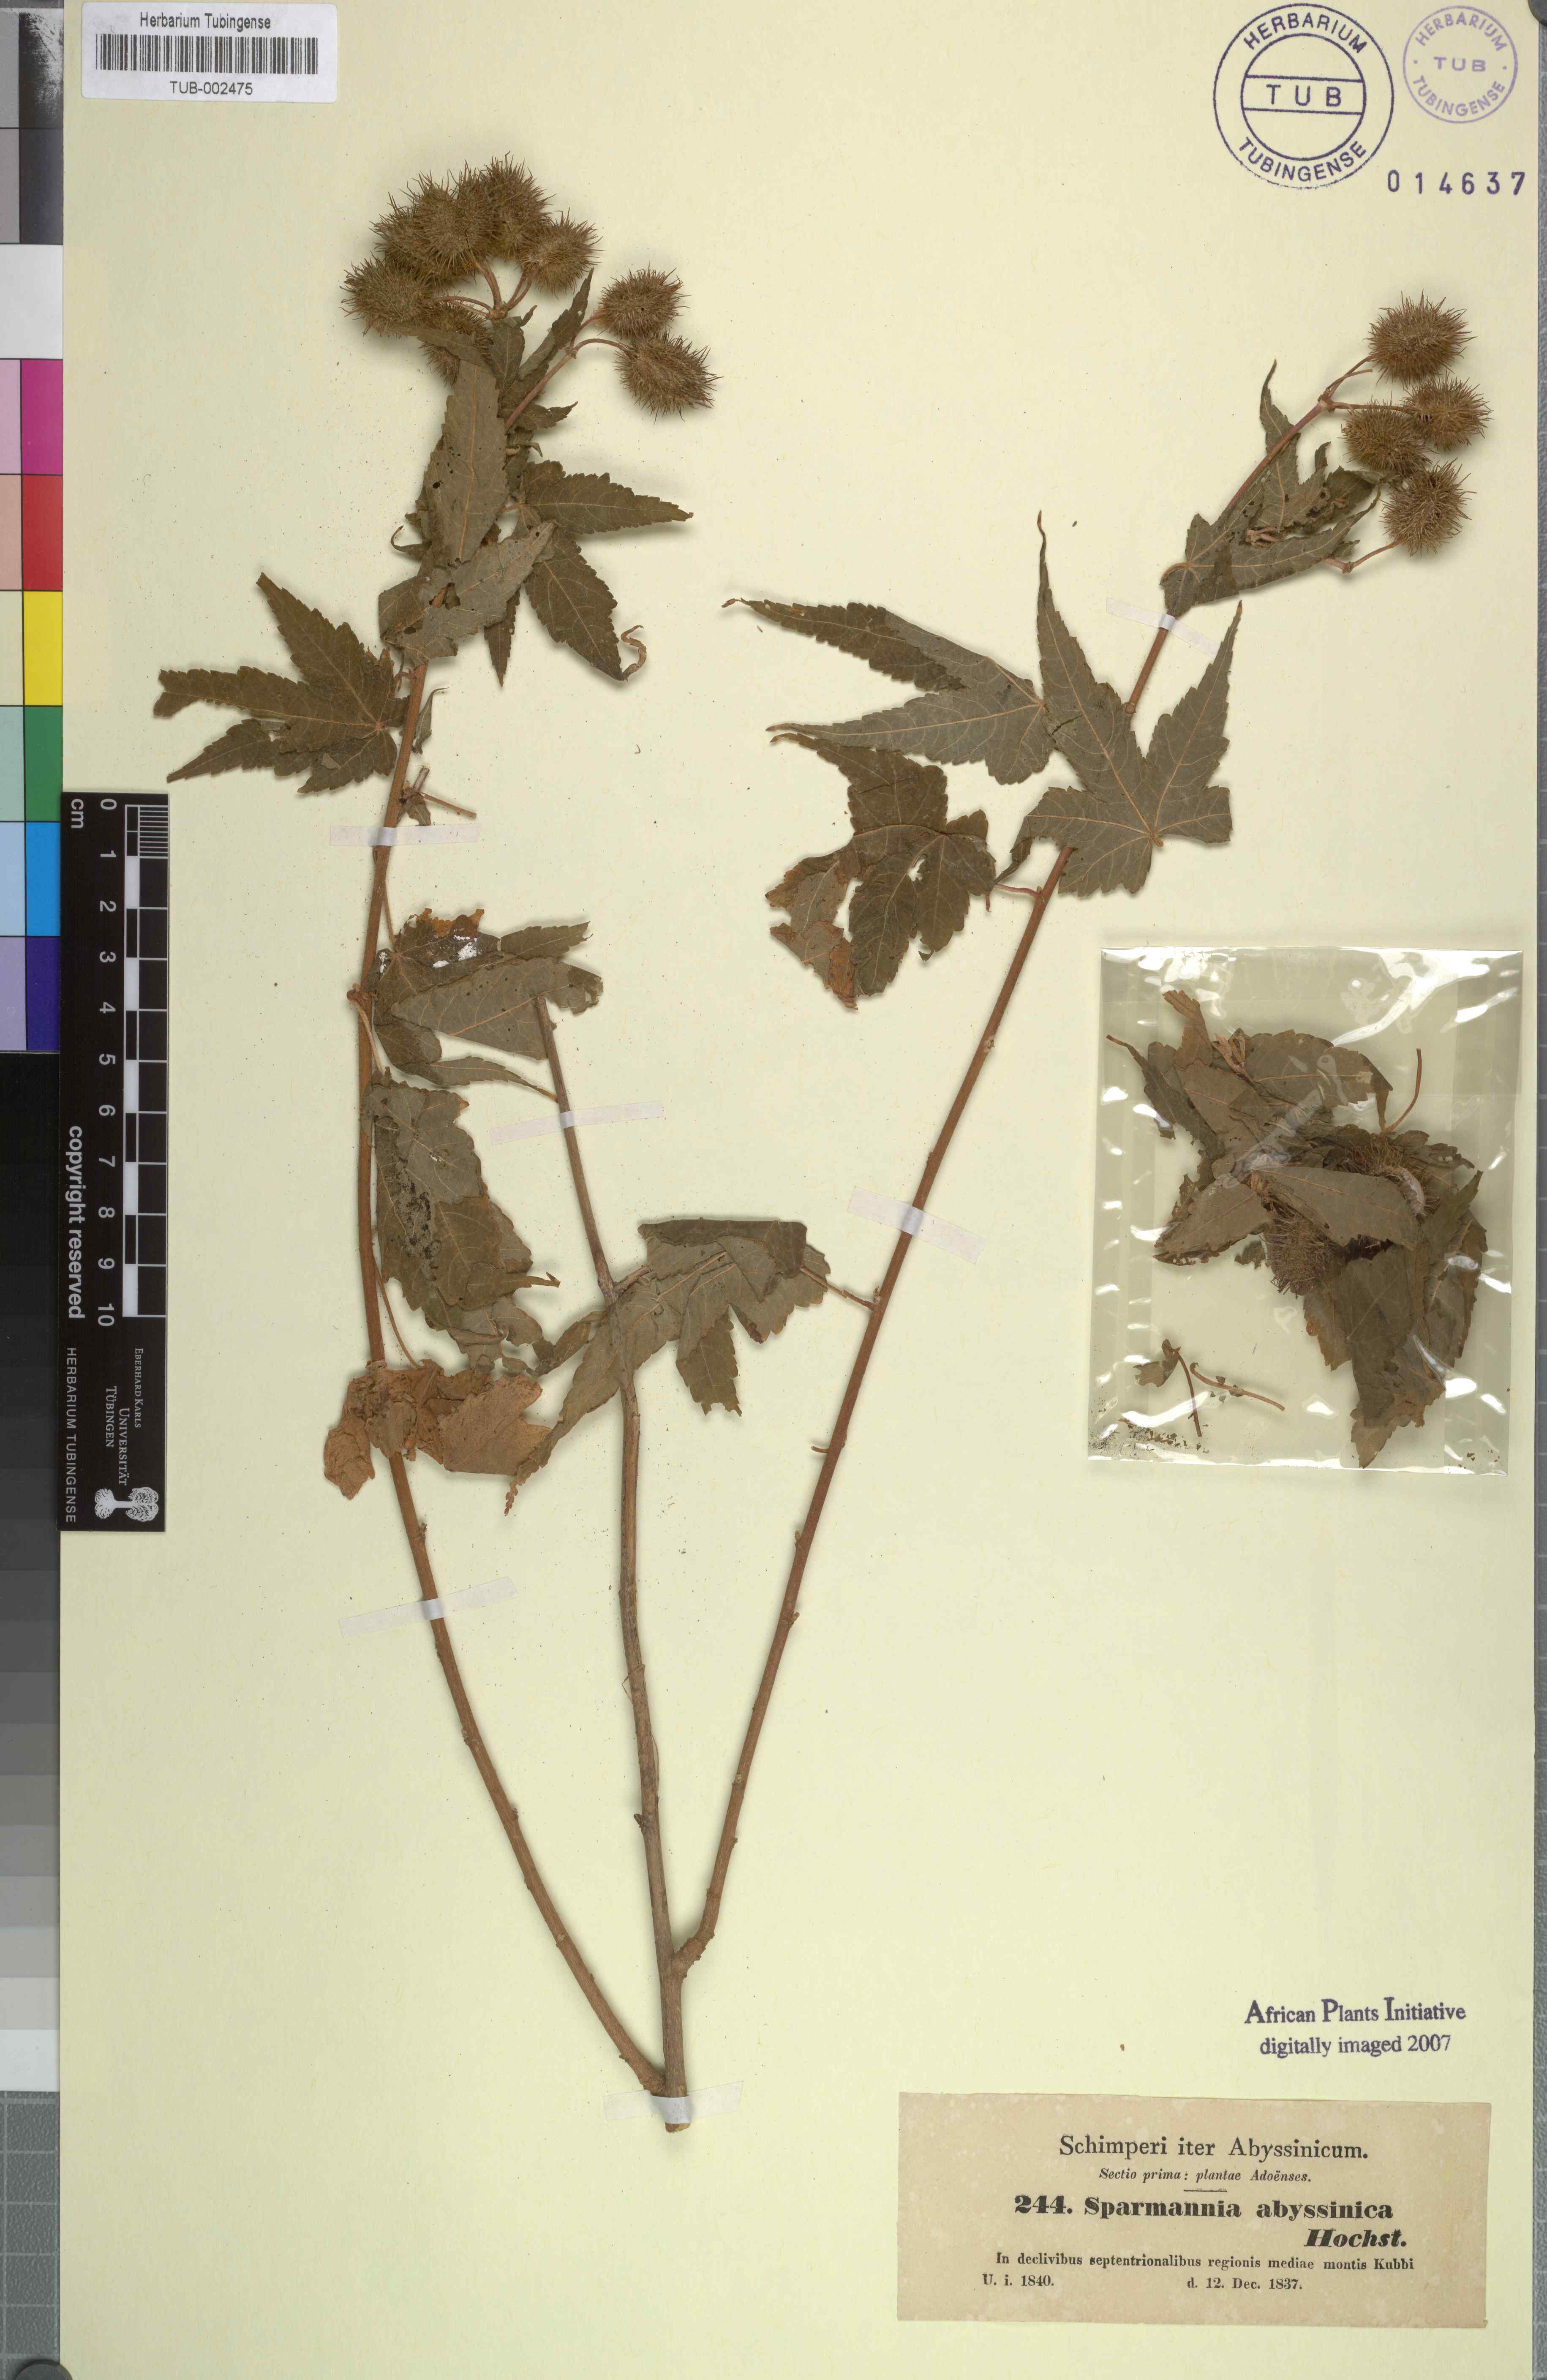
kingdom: Plantae
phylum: Tracheophyta
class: Magnoliopsida
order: Malvales
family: Malvaceae
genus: Sparrmannia
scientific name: Sparrmannia ricinocarpa
